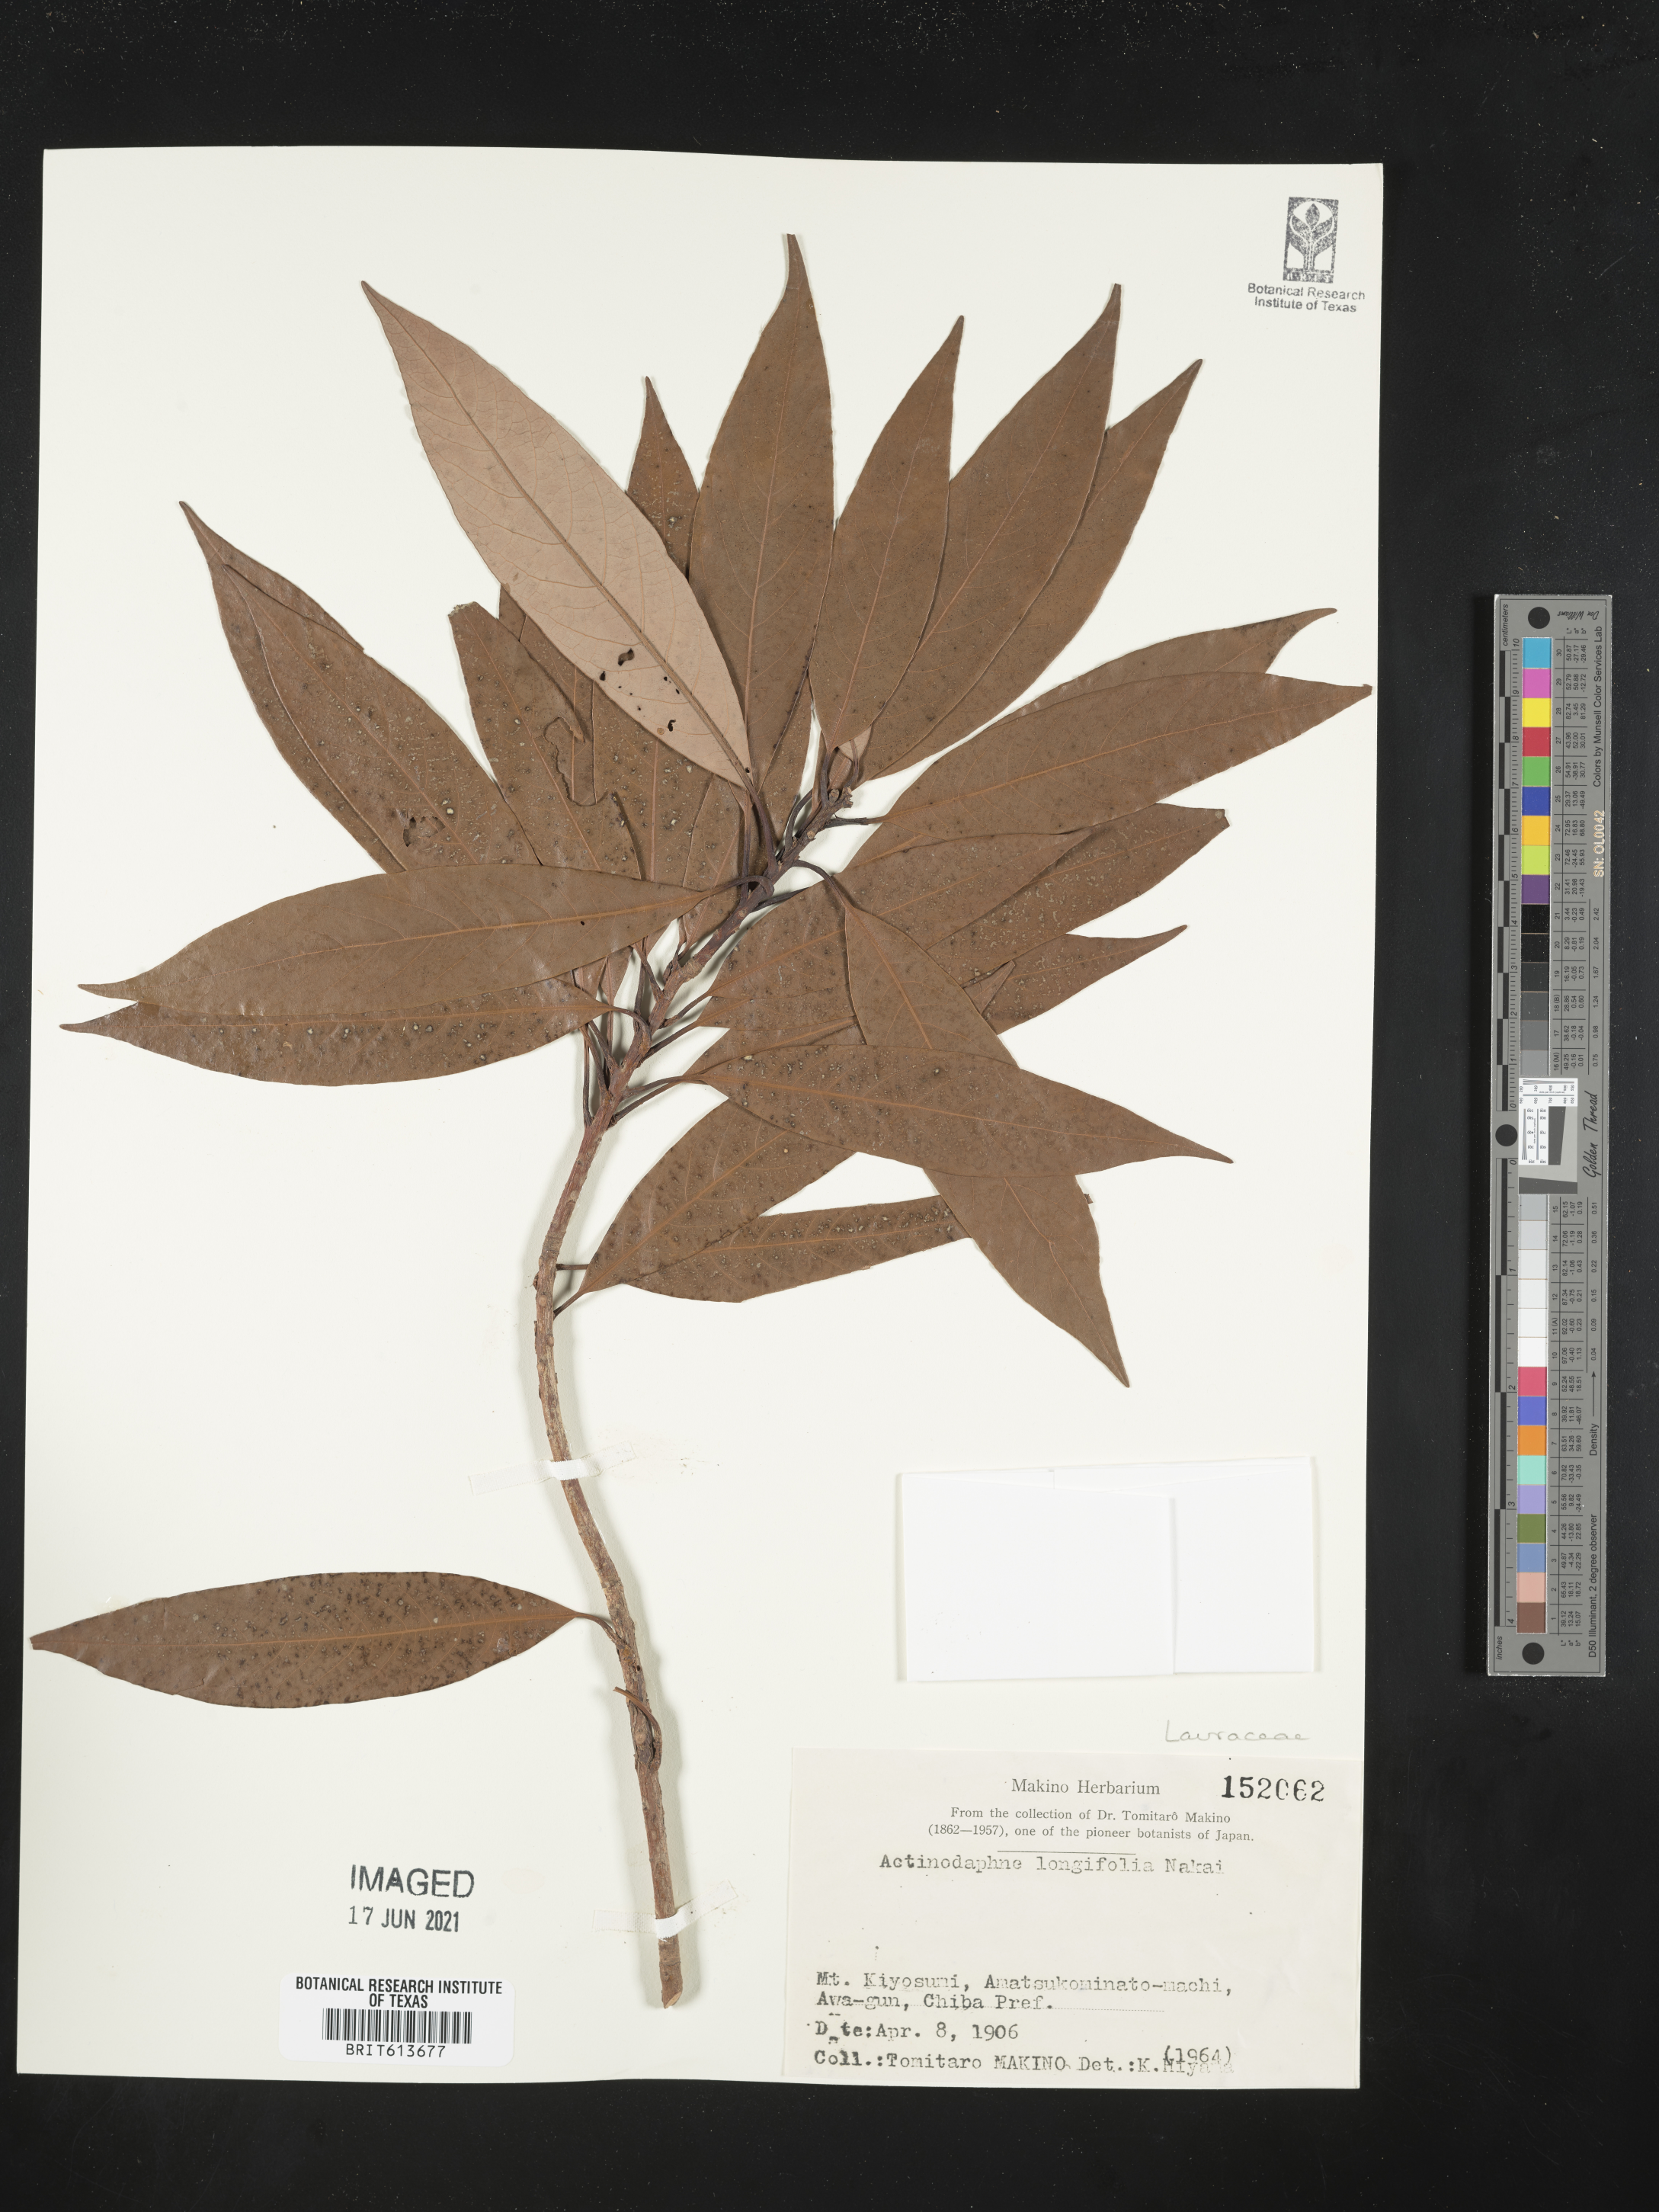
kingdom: Plantae
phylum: Tracheophyta
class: Magnoliopsida
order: Laurales
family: Lauraceae
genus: Actinodaphne
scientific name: Actinodaphne acuminata
